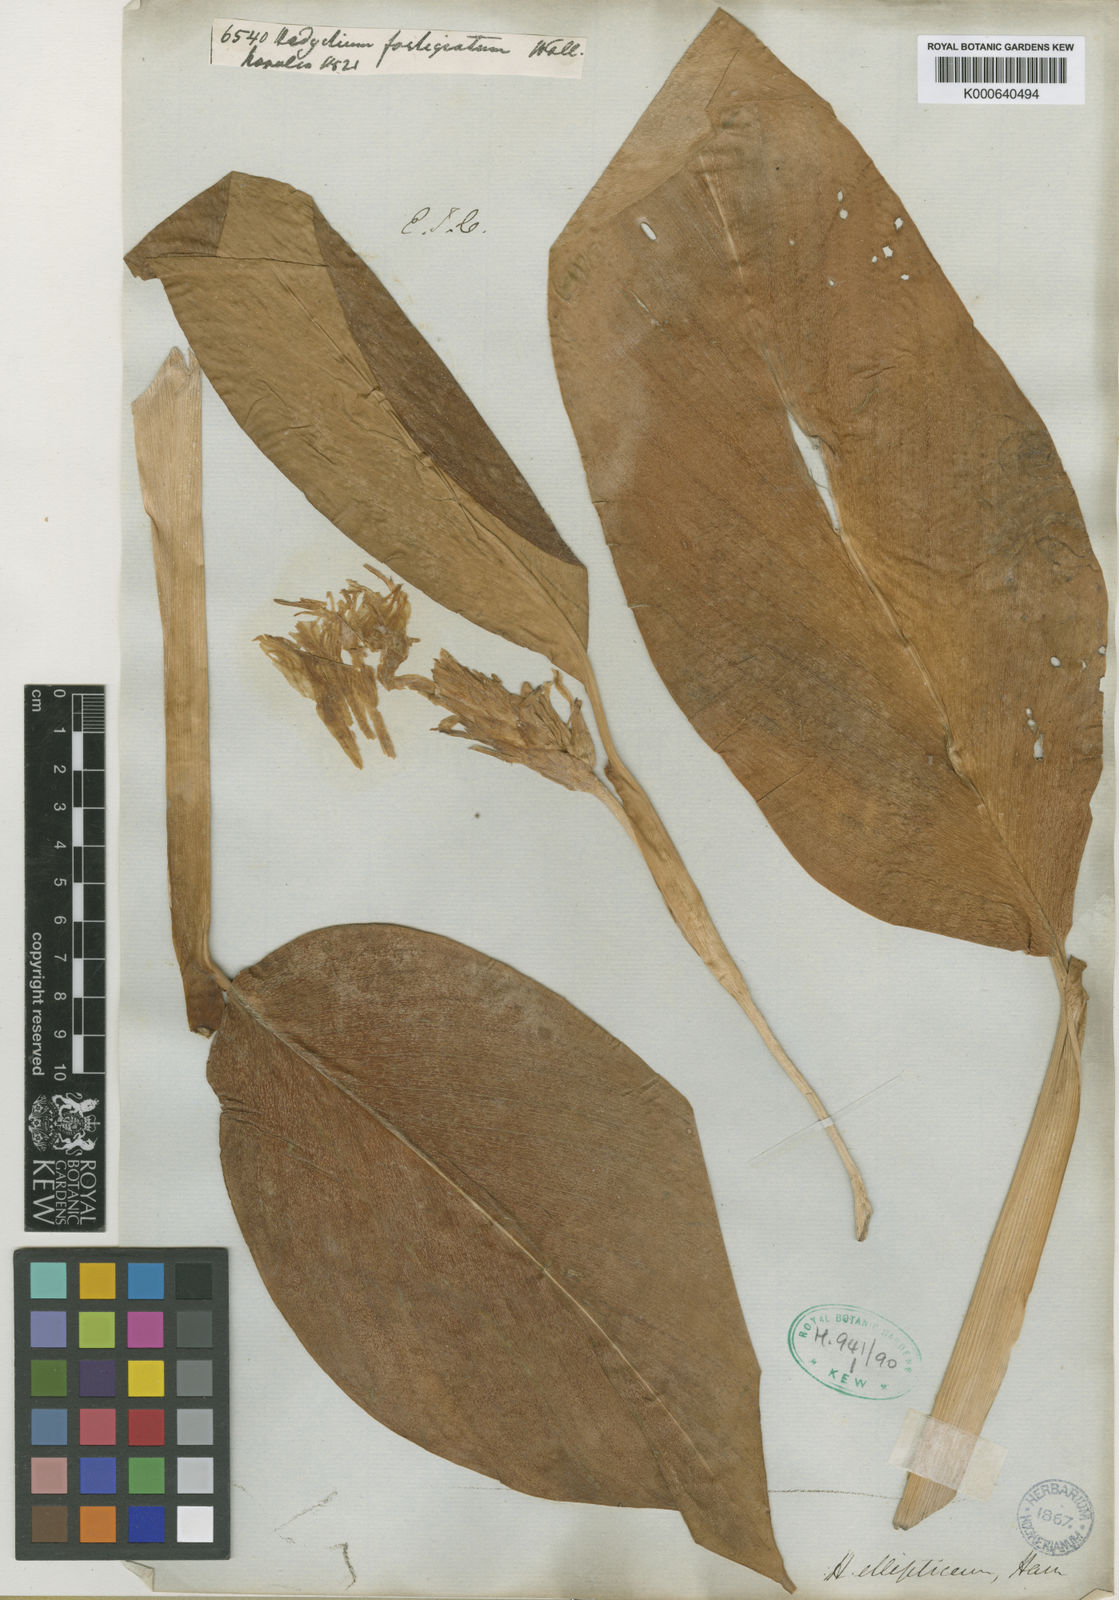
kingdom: Plantae
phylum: Tracheophyta
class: Liliopsida
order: Zingiberales
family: Zingiberaceae
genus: Hedychium
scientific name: Hedychium ellipticum
